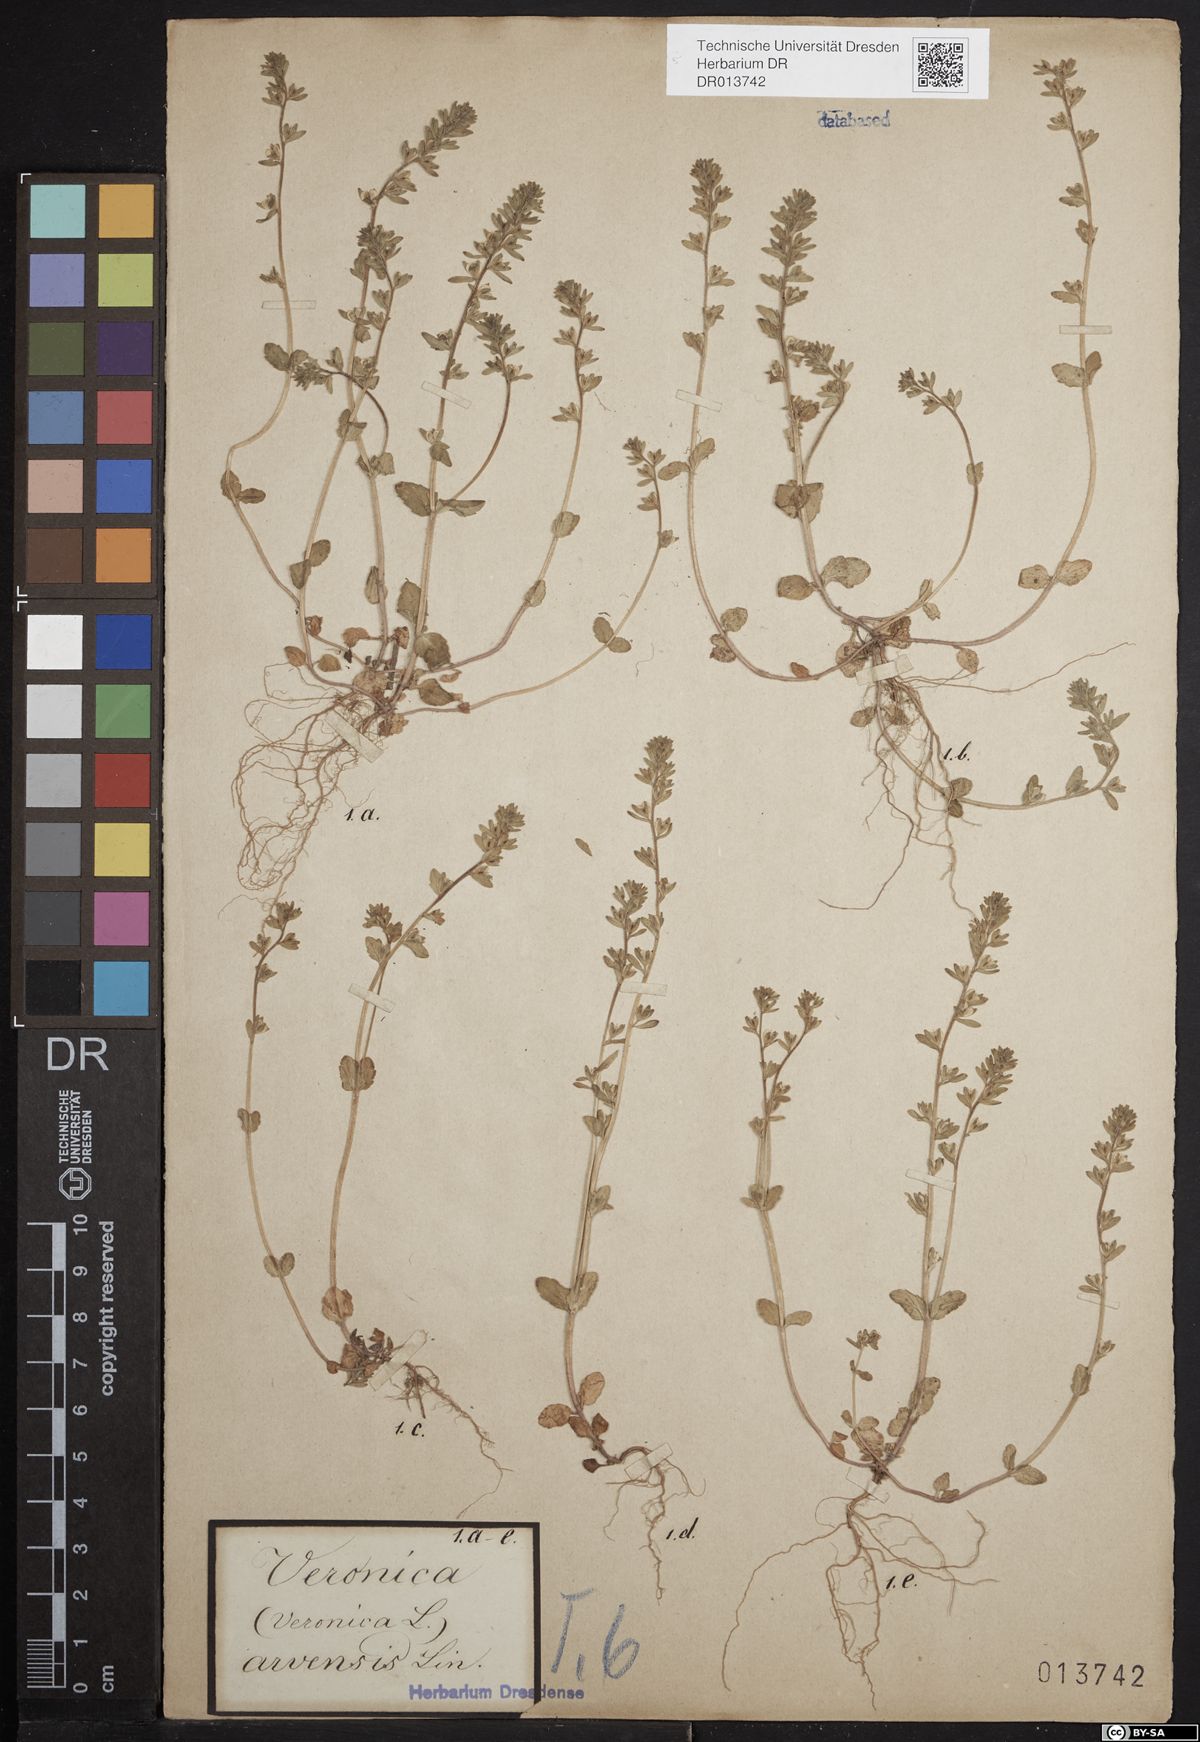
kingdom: Plantae
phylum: Tracheophyta
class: Magnoliopsida
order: Lamiales
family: Plantaginaceae
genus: Veronica
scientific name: Veronica arvensis
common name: Corn speedwell
